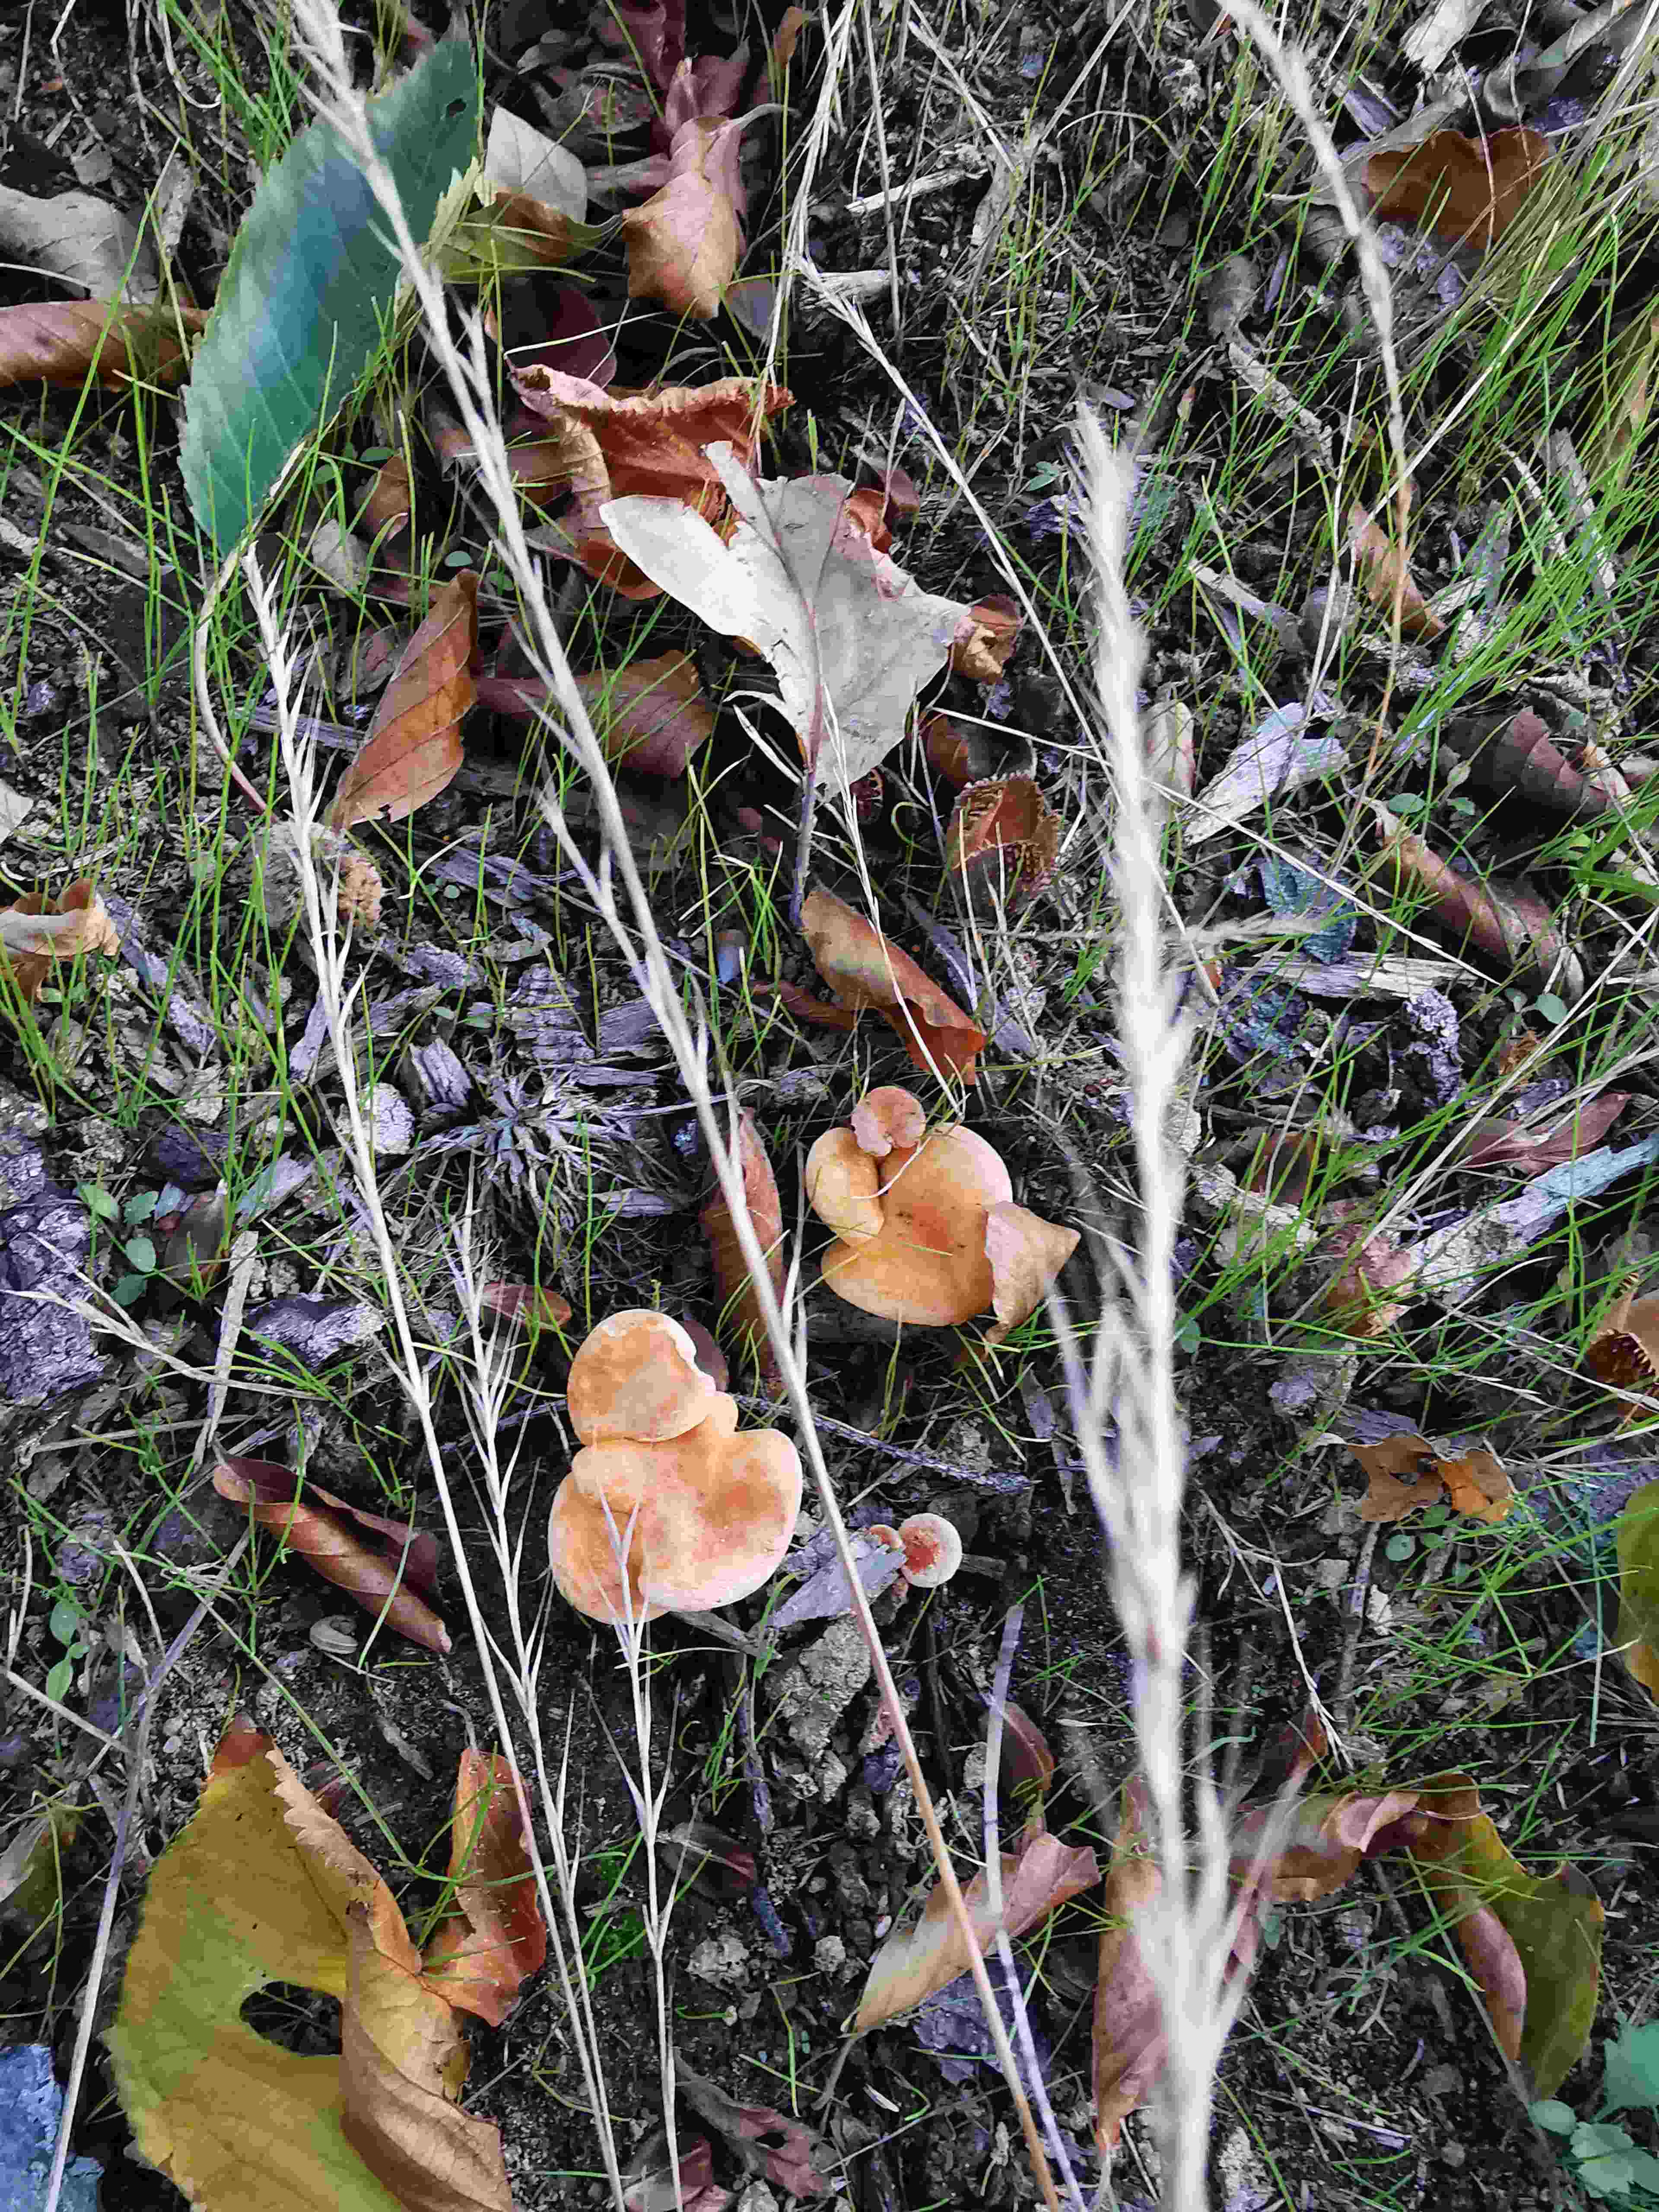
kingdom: Fungi
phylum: Basidiomycota
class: Agaricomycetes
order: Boletales
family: Hygrophoropsidaceae
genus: Hygrophoropsis
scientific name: Hygrophoropsis aurantiaca
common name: almindelig orangekantarel
